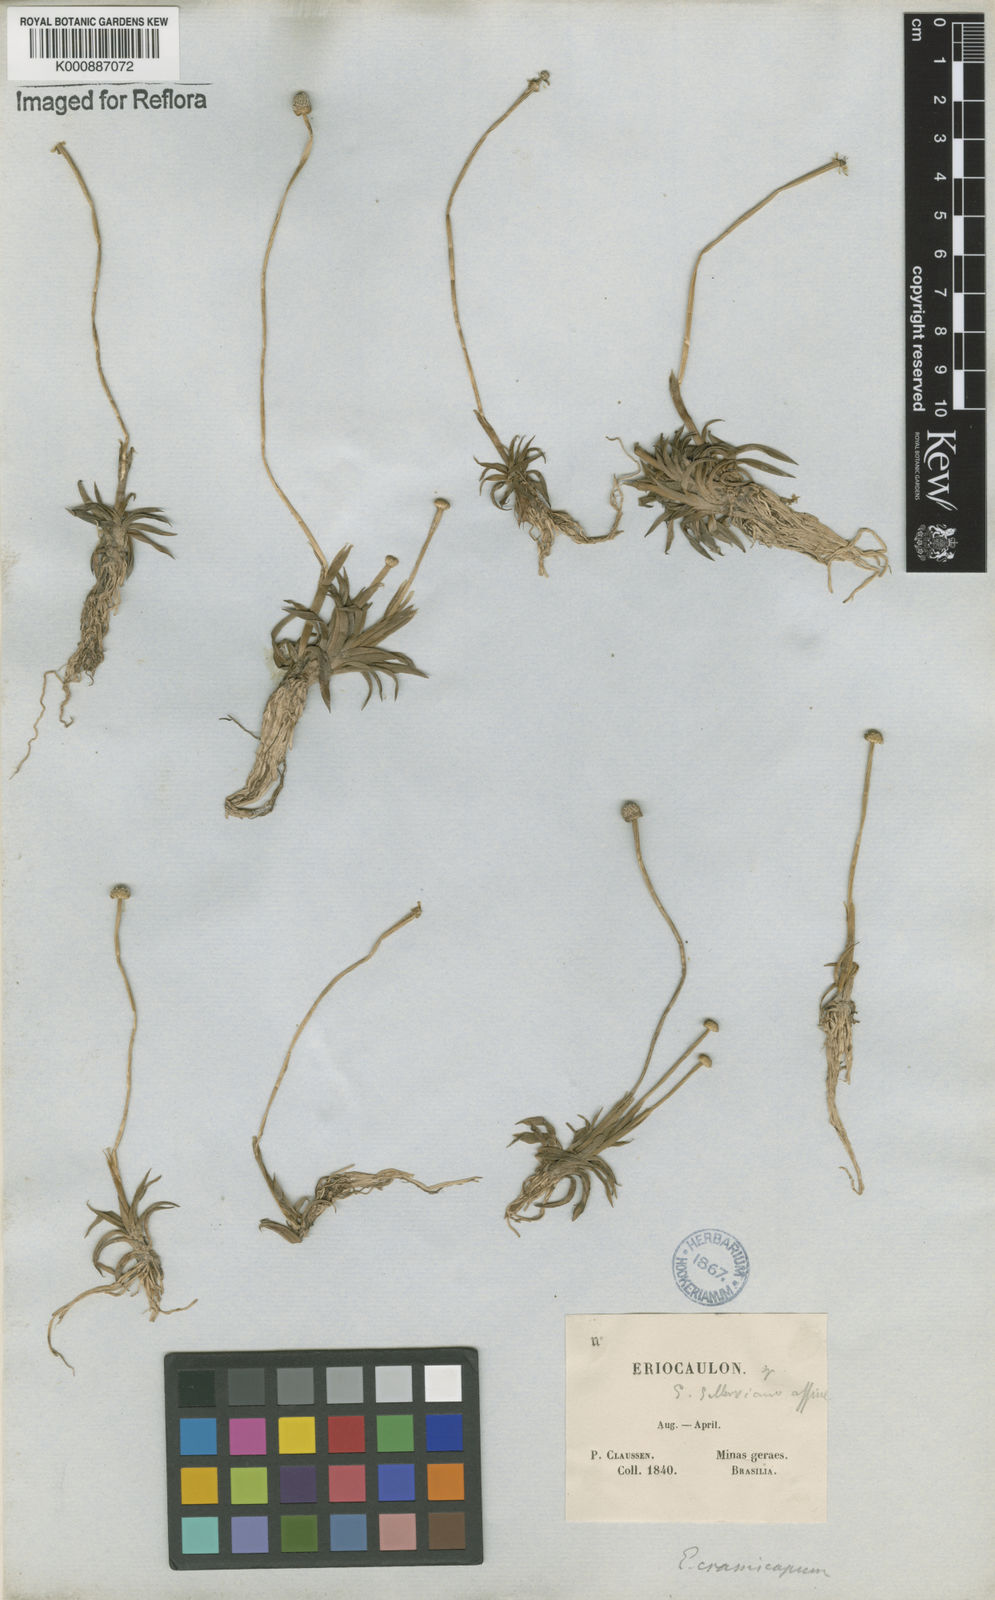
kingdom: Plantae
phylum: Tracheophyta
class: Liliopsida
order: Poales
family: Eriocaulaceae
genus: Eriocaulon
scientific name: Eriocaulon crassiscapum
